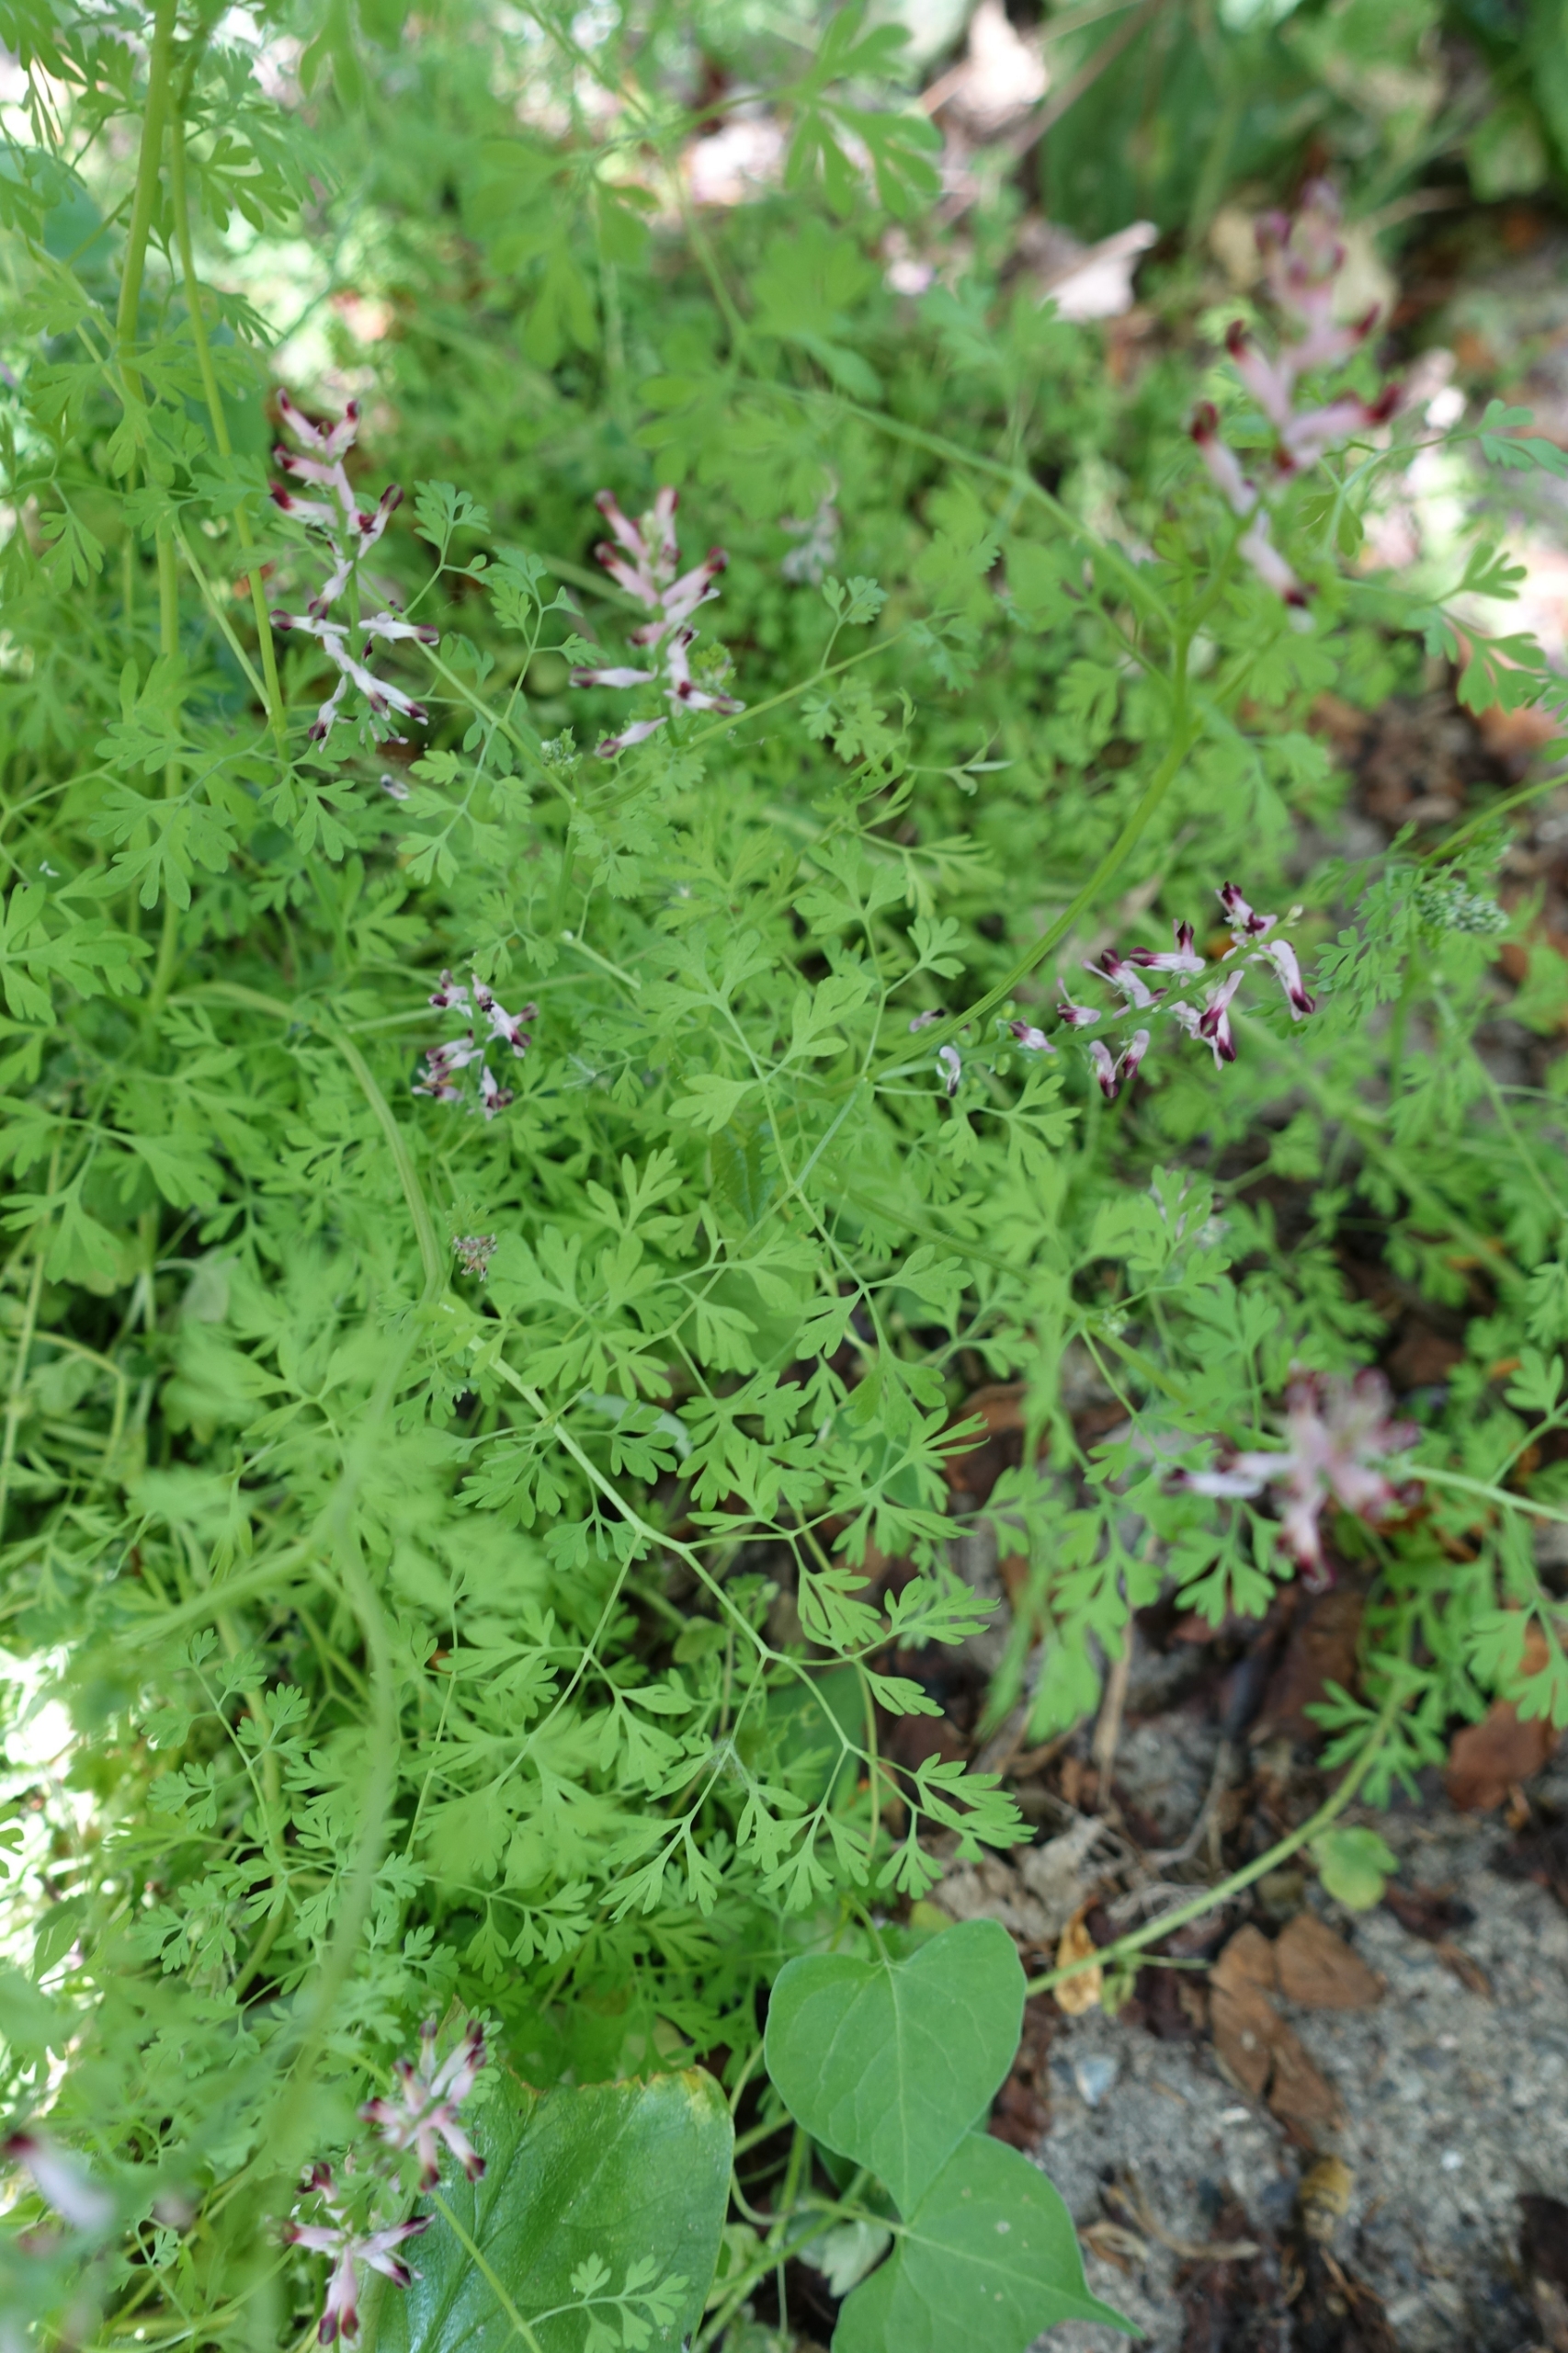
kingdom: Plantae
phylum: Tracheophyta
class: Magnoliopsida
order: Ranunculales
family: Papaveraceae
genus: Fumaria
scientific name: Fumaria muralis
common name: Mur-jordrøg
